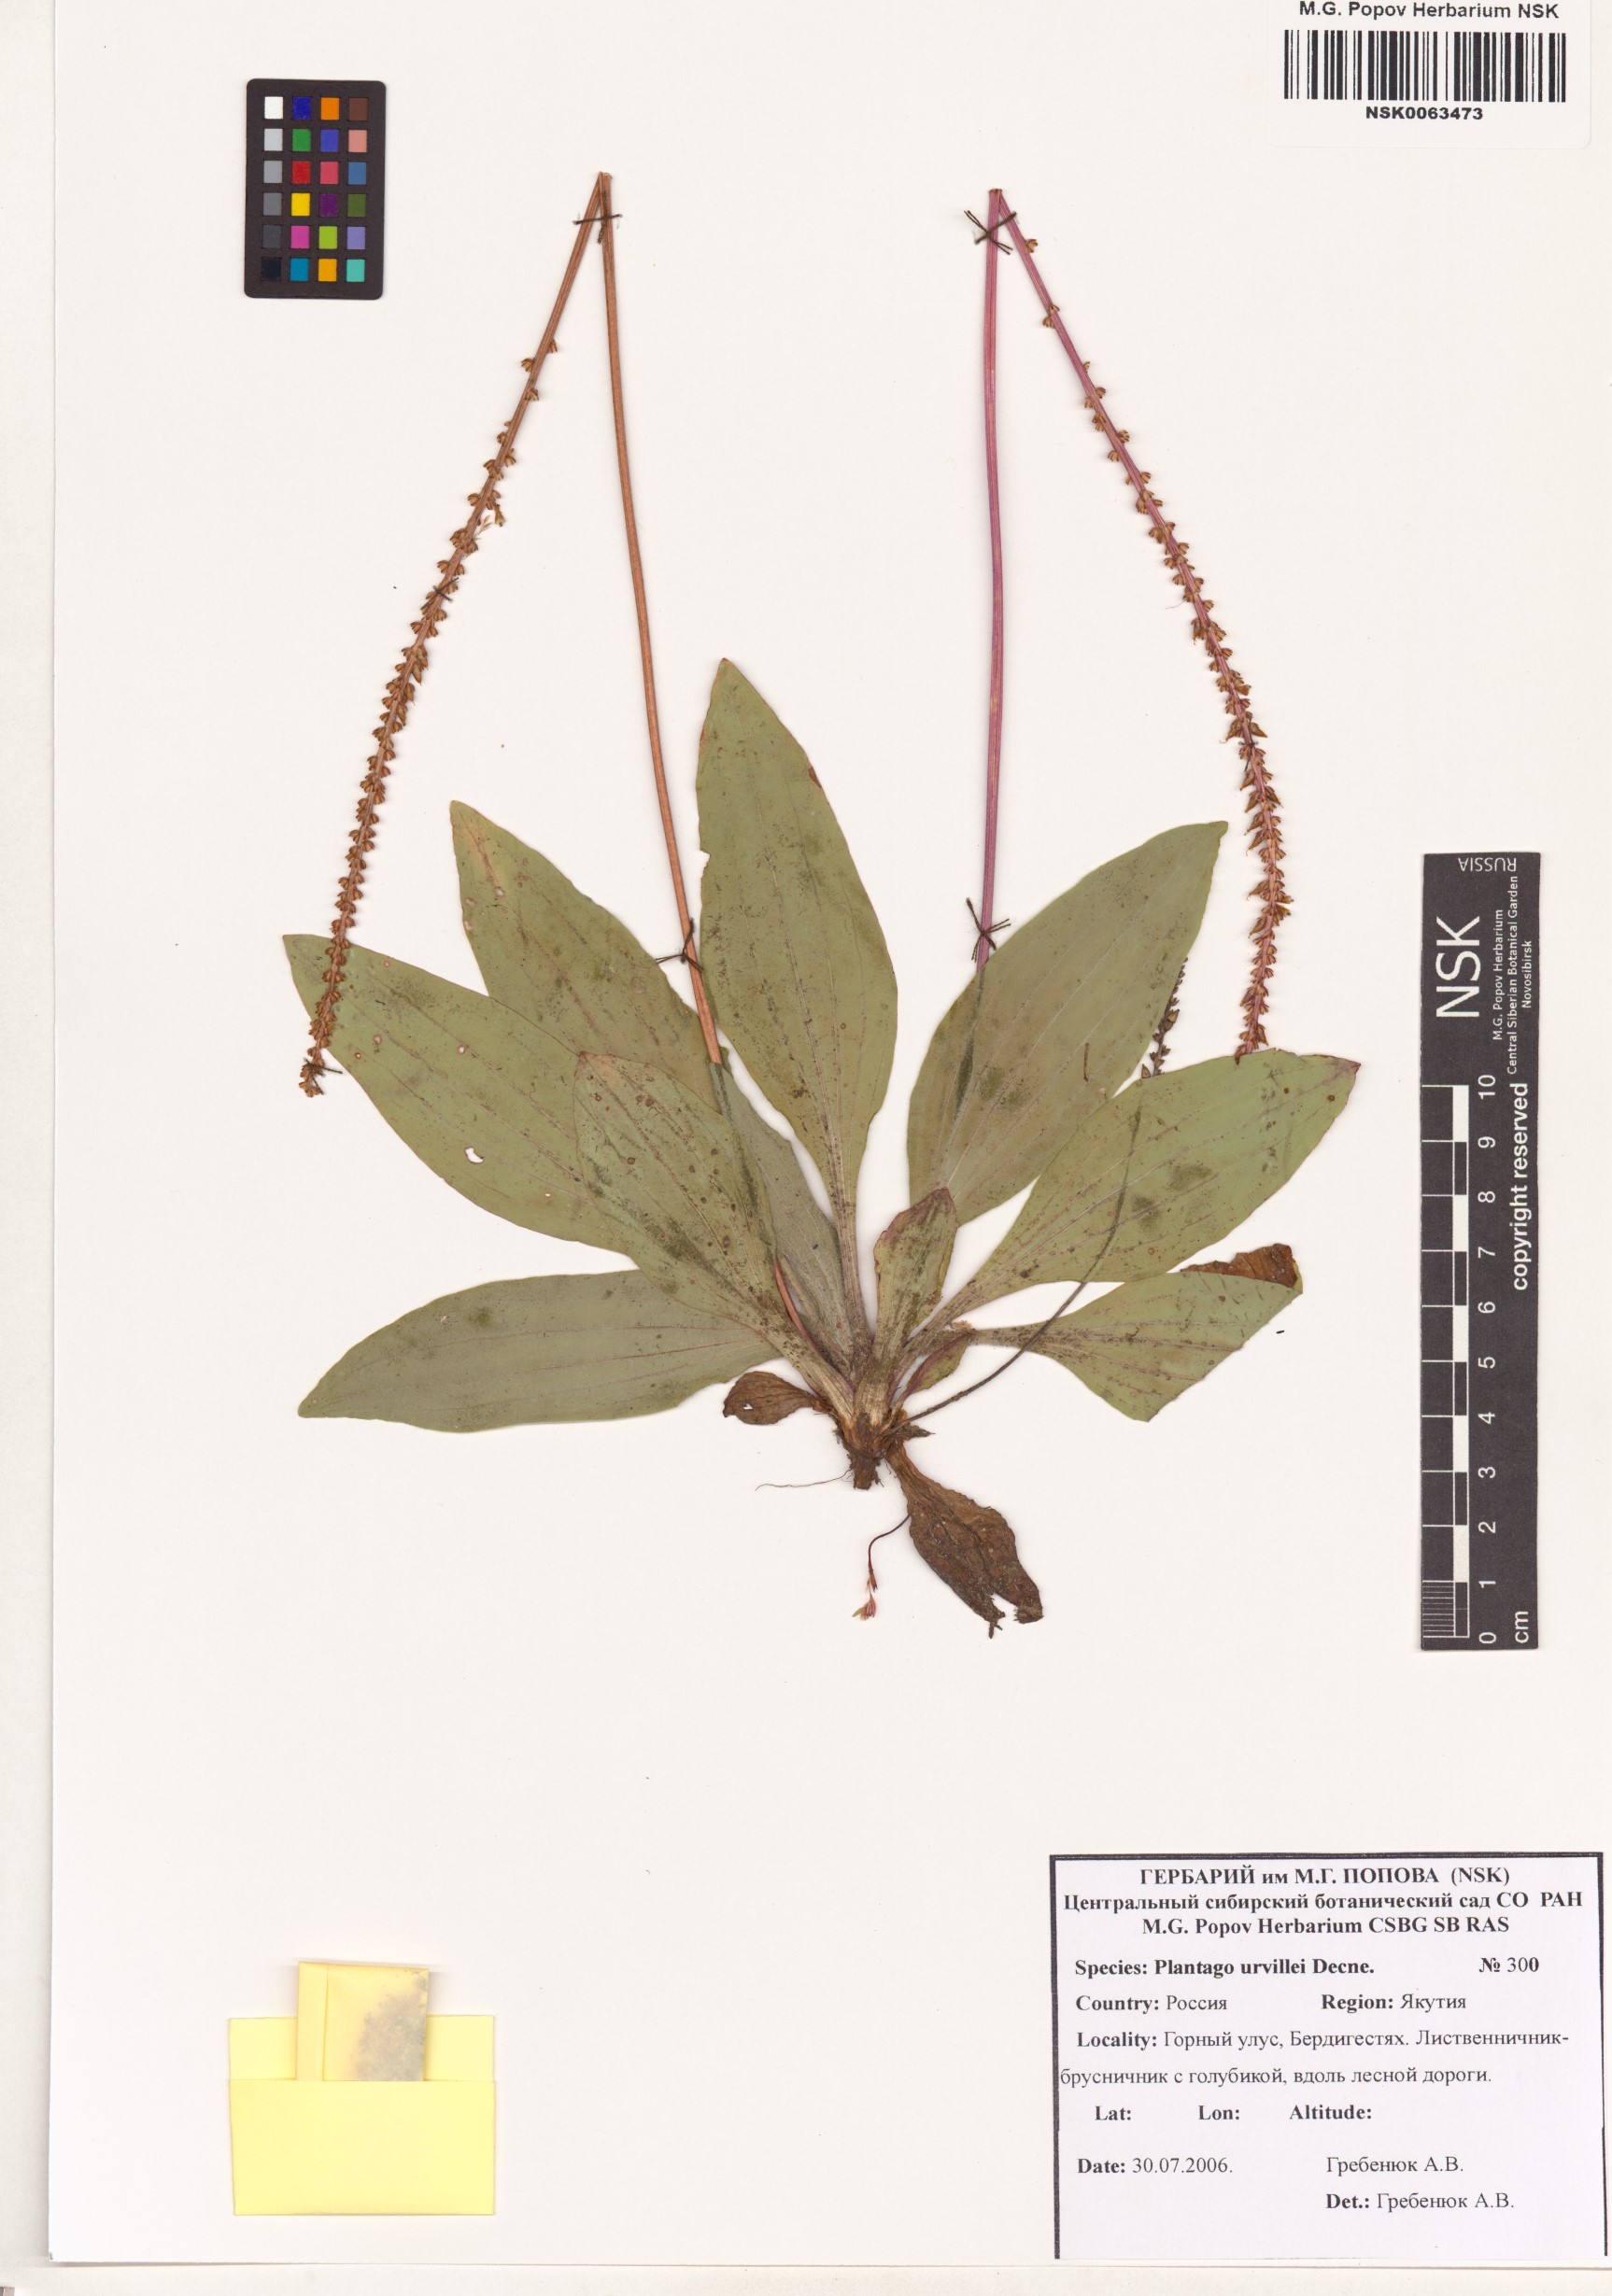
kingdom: Plantae
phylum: Tracheophyta
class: Magnoliopsida
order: Lamiales
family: Plantaginaceae
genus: Plantago
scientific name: Plantago australis
